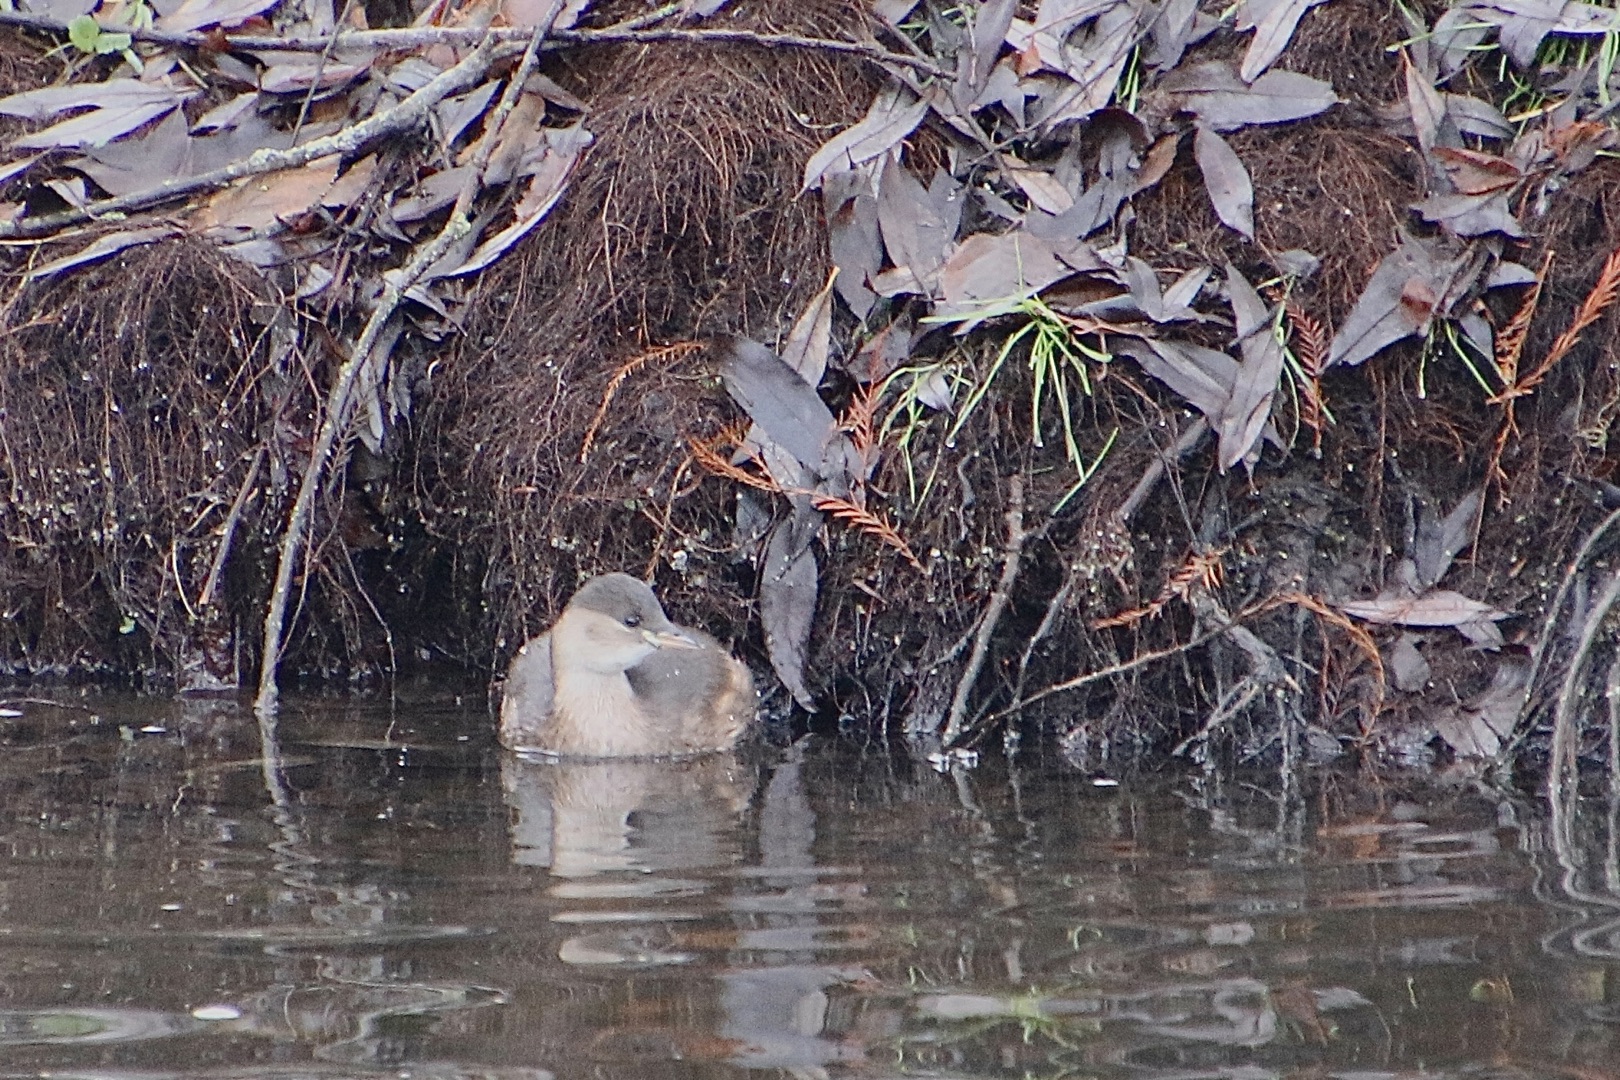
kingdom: Animalia
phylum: Chordata
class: Aves
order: Podicipediformes
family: Podicipedidae
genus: Tachybaptus
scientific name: Tachybaptus ruficollis
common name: Lille lappedykker
